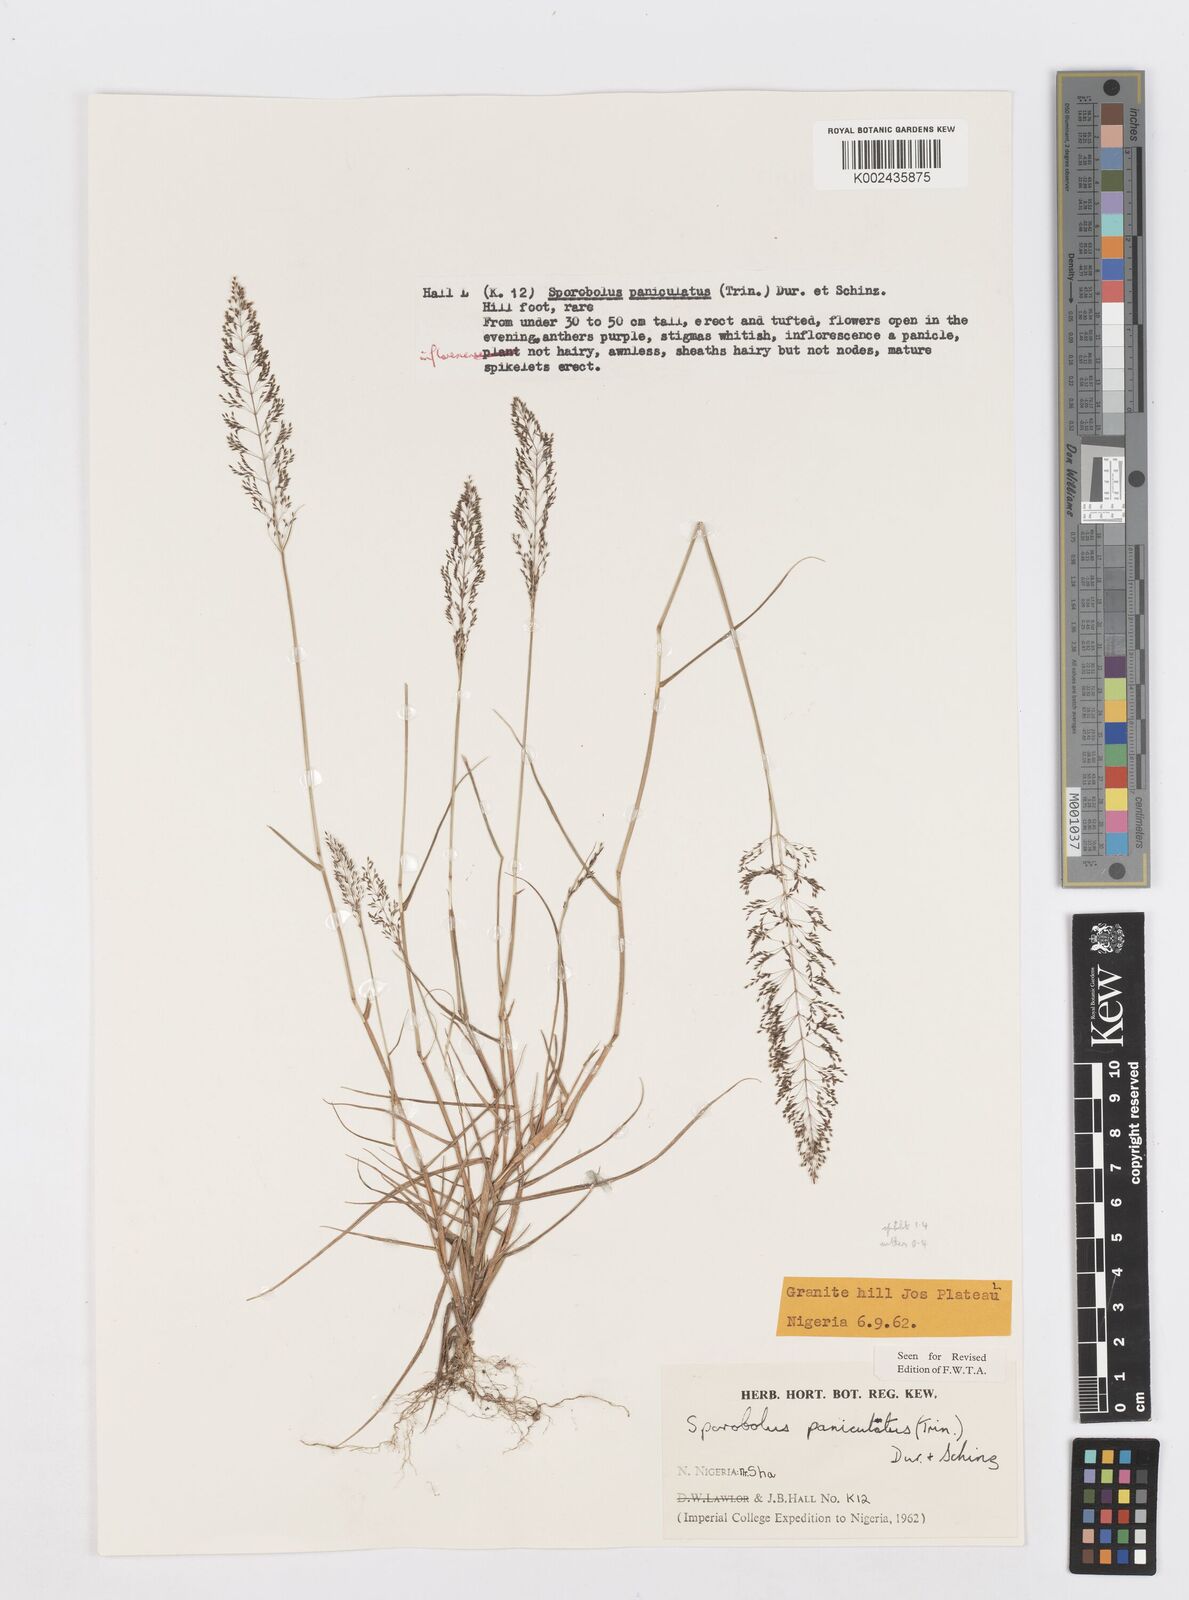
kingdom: Plantae
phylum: Tracheophyta
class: Liliopsida
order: Poales
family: Poaceae
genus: Sporobolus
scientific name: Sporobolus micranthus
